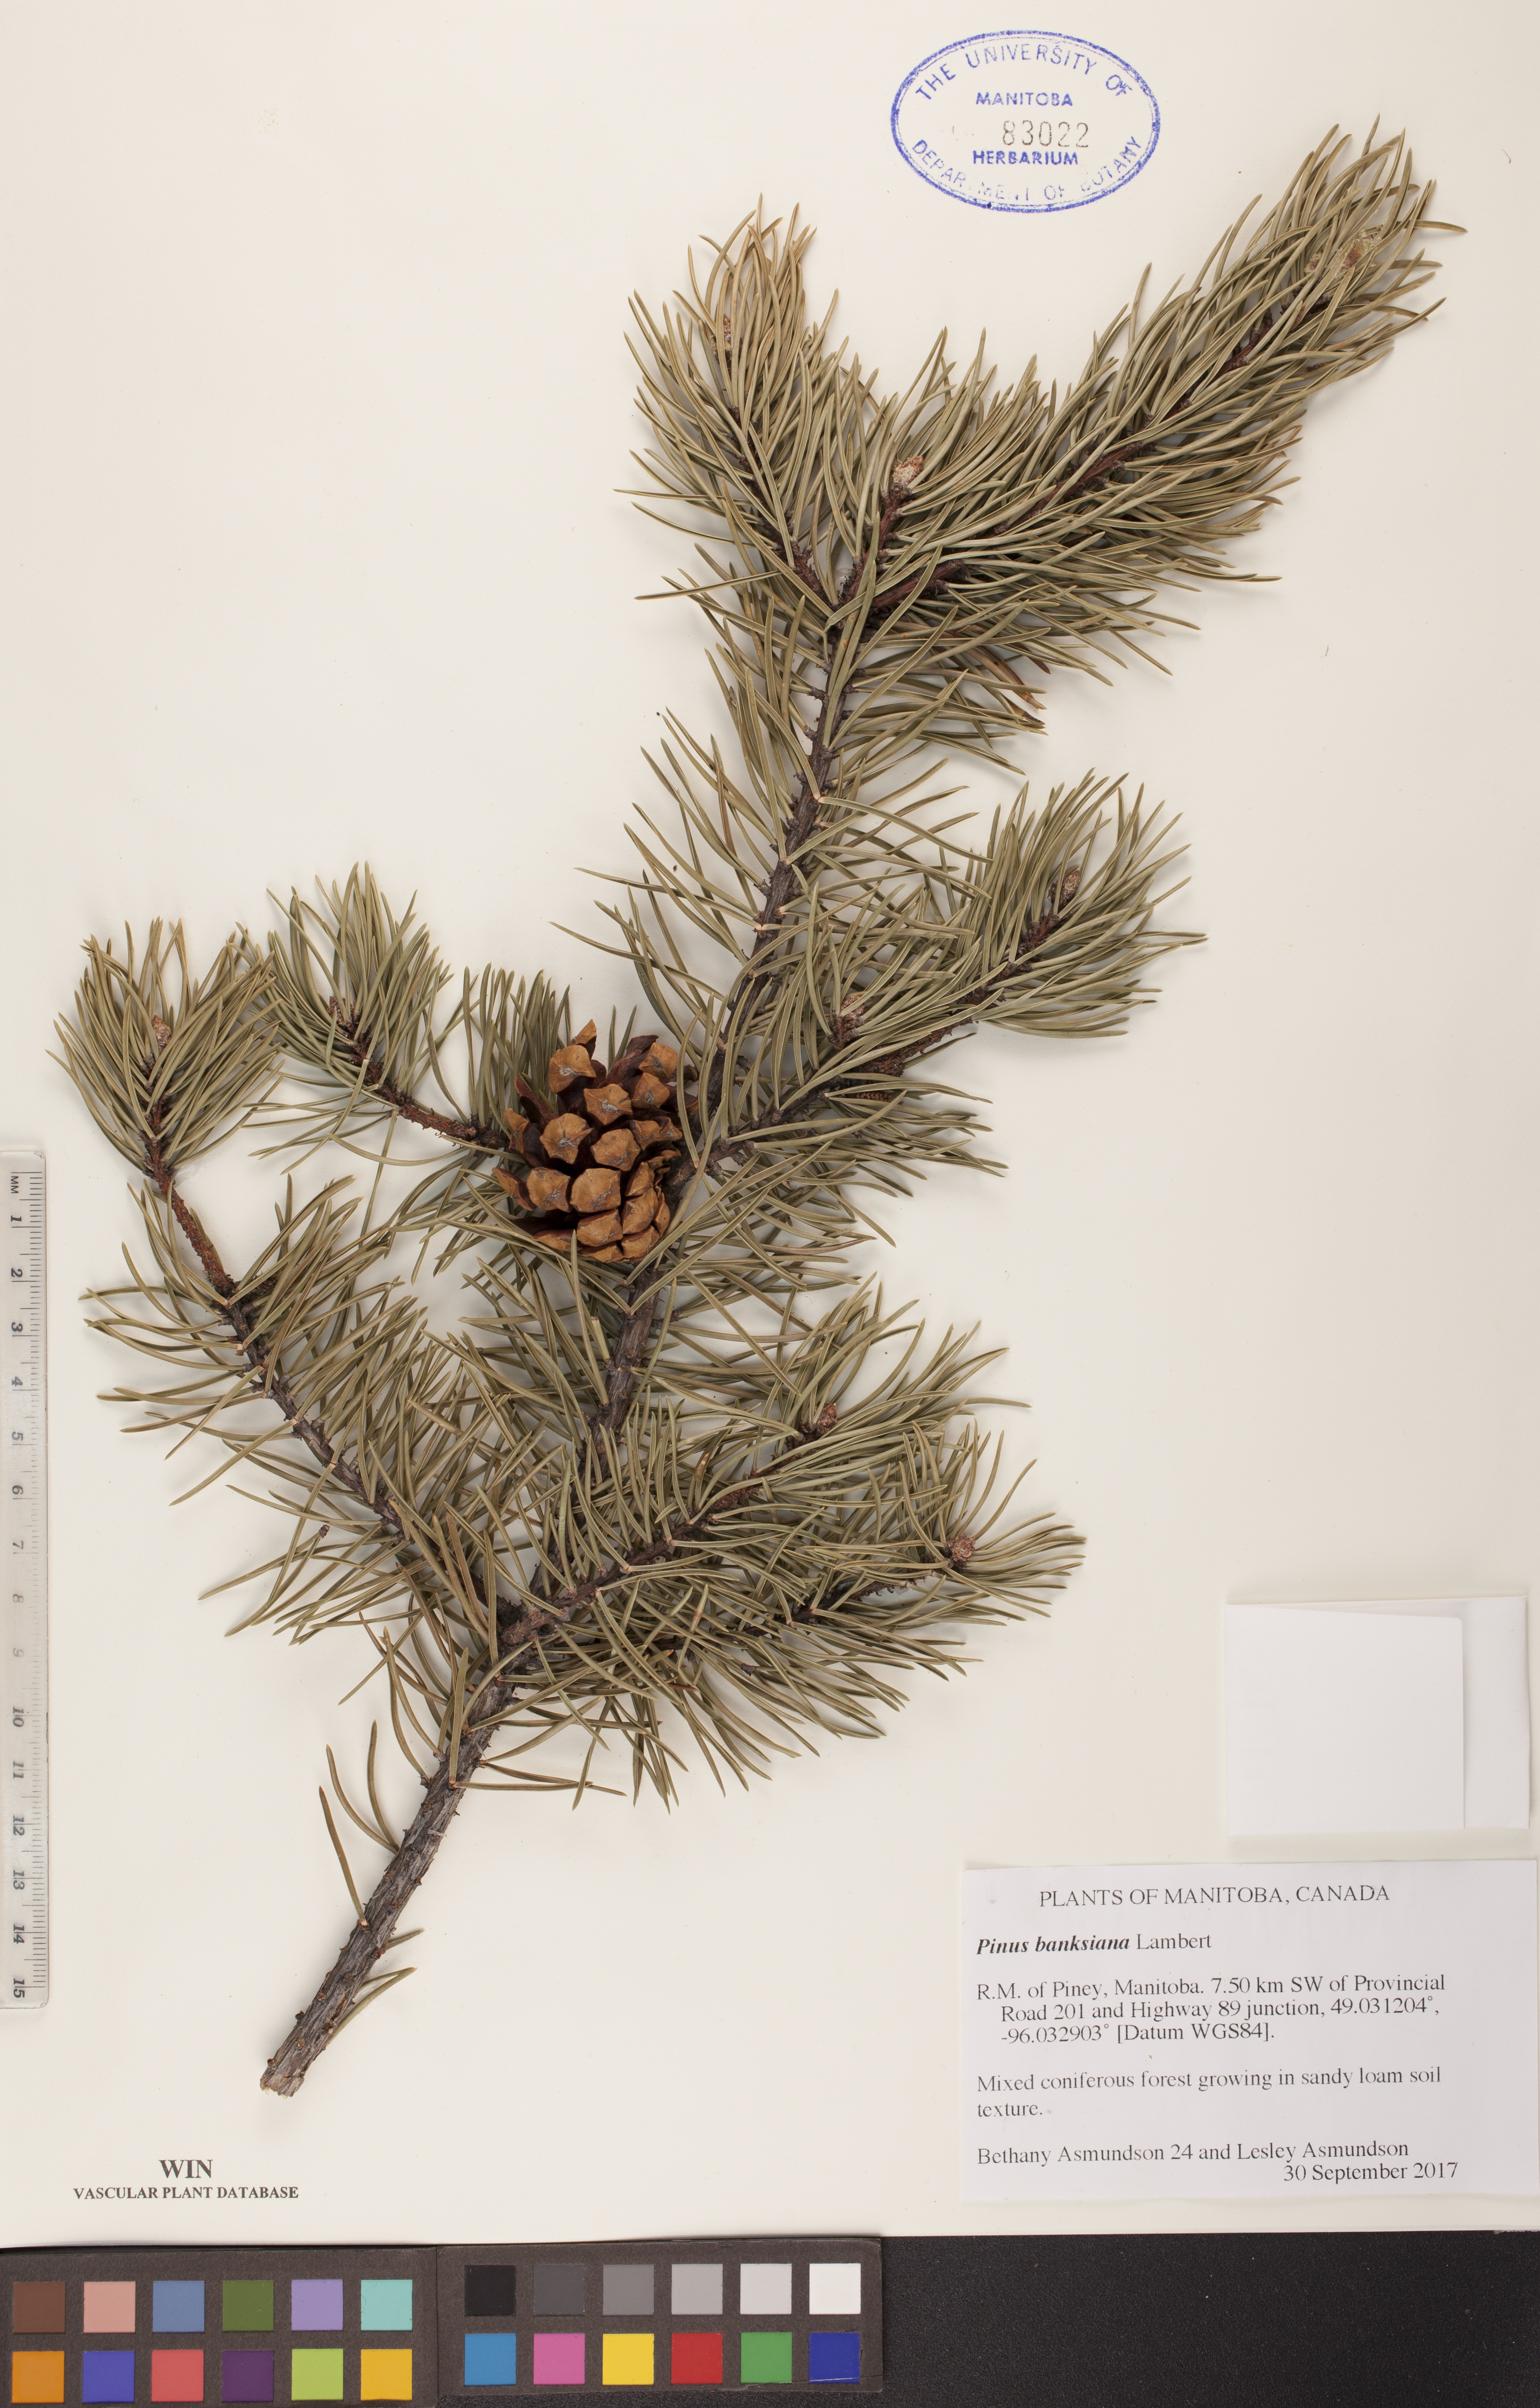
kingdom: Plantae
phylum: Tracheophyta
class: Pinopsida
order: Pinales
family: Pinaceae
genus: Pinus
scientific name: Pinus banksiana
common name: Jack pine
